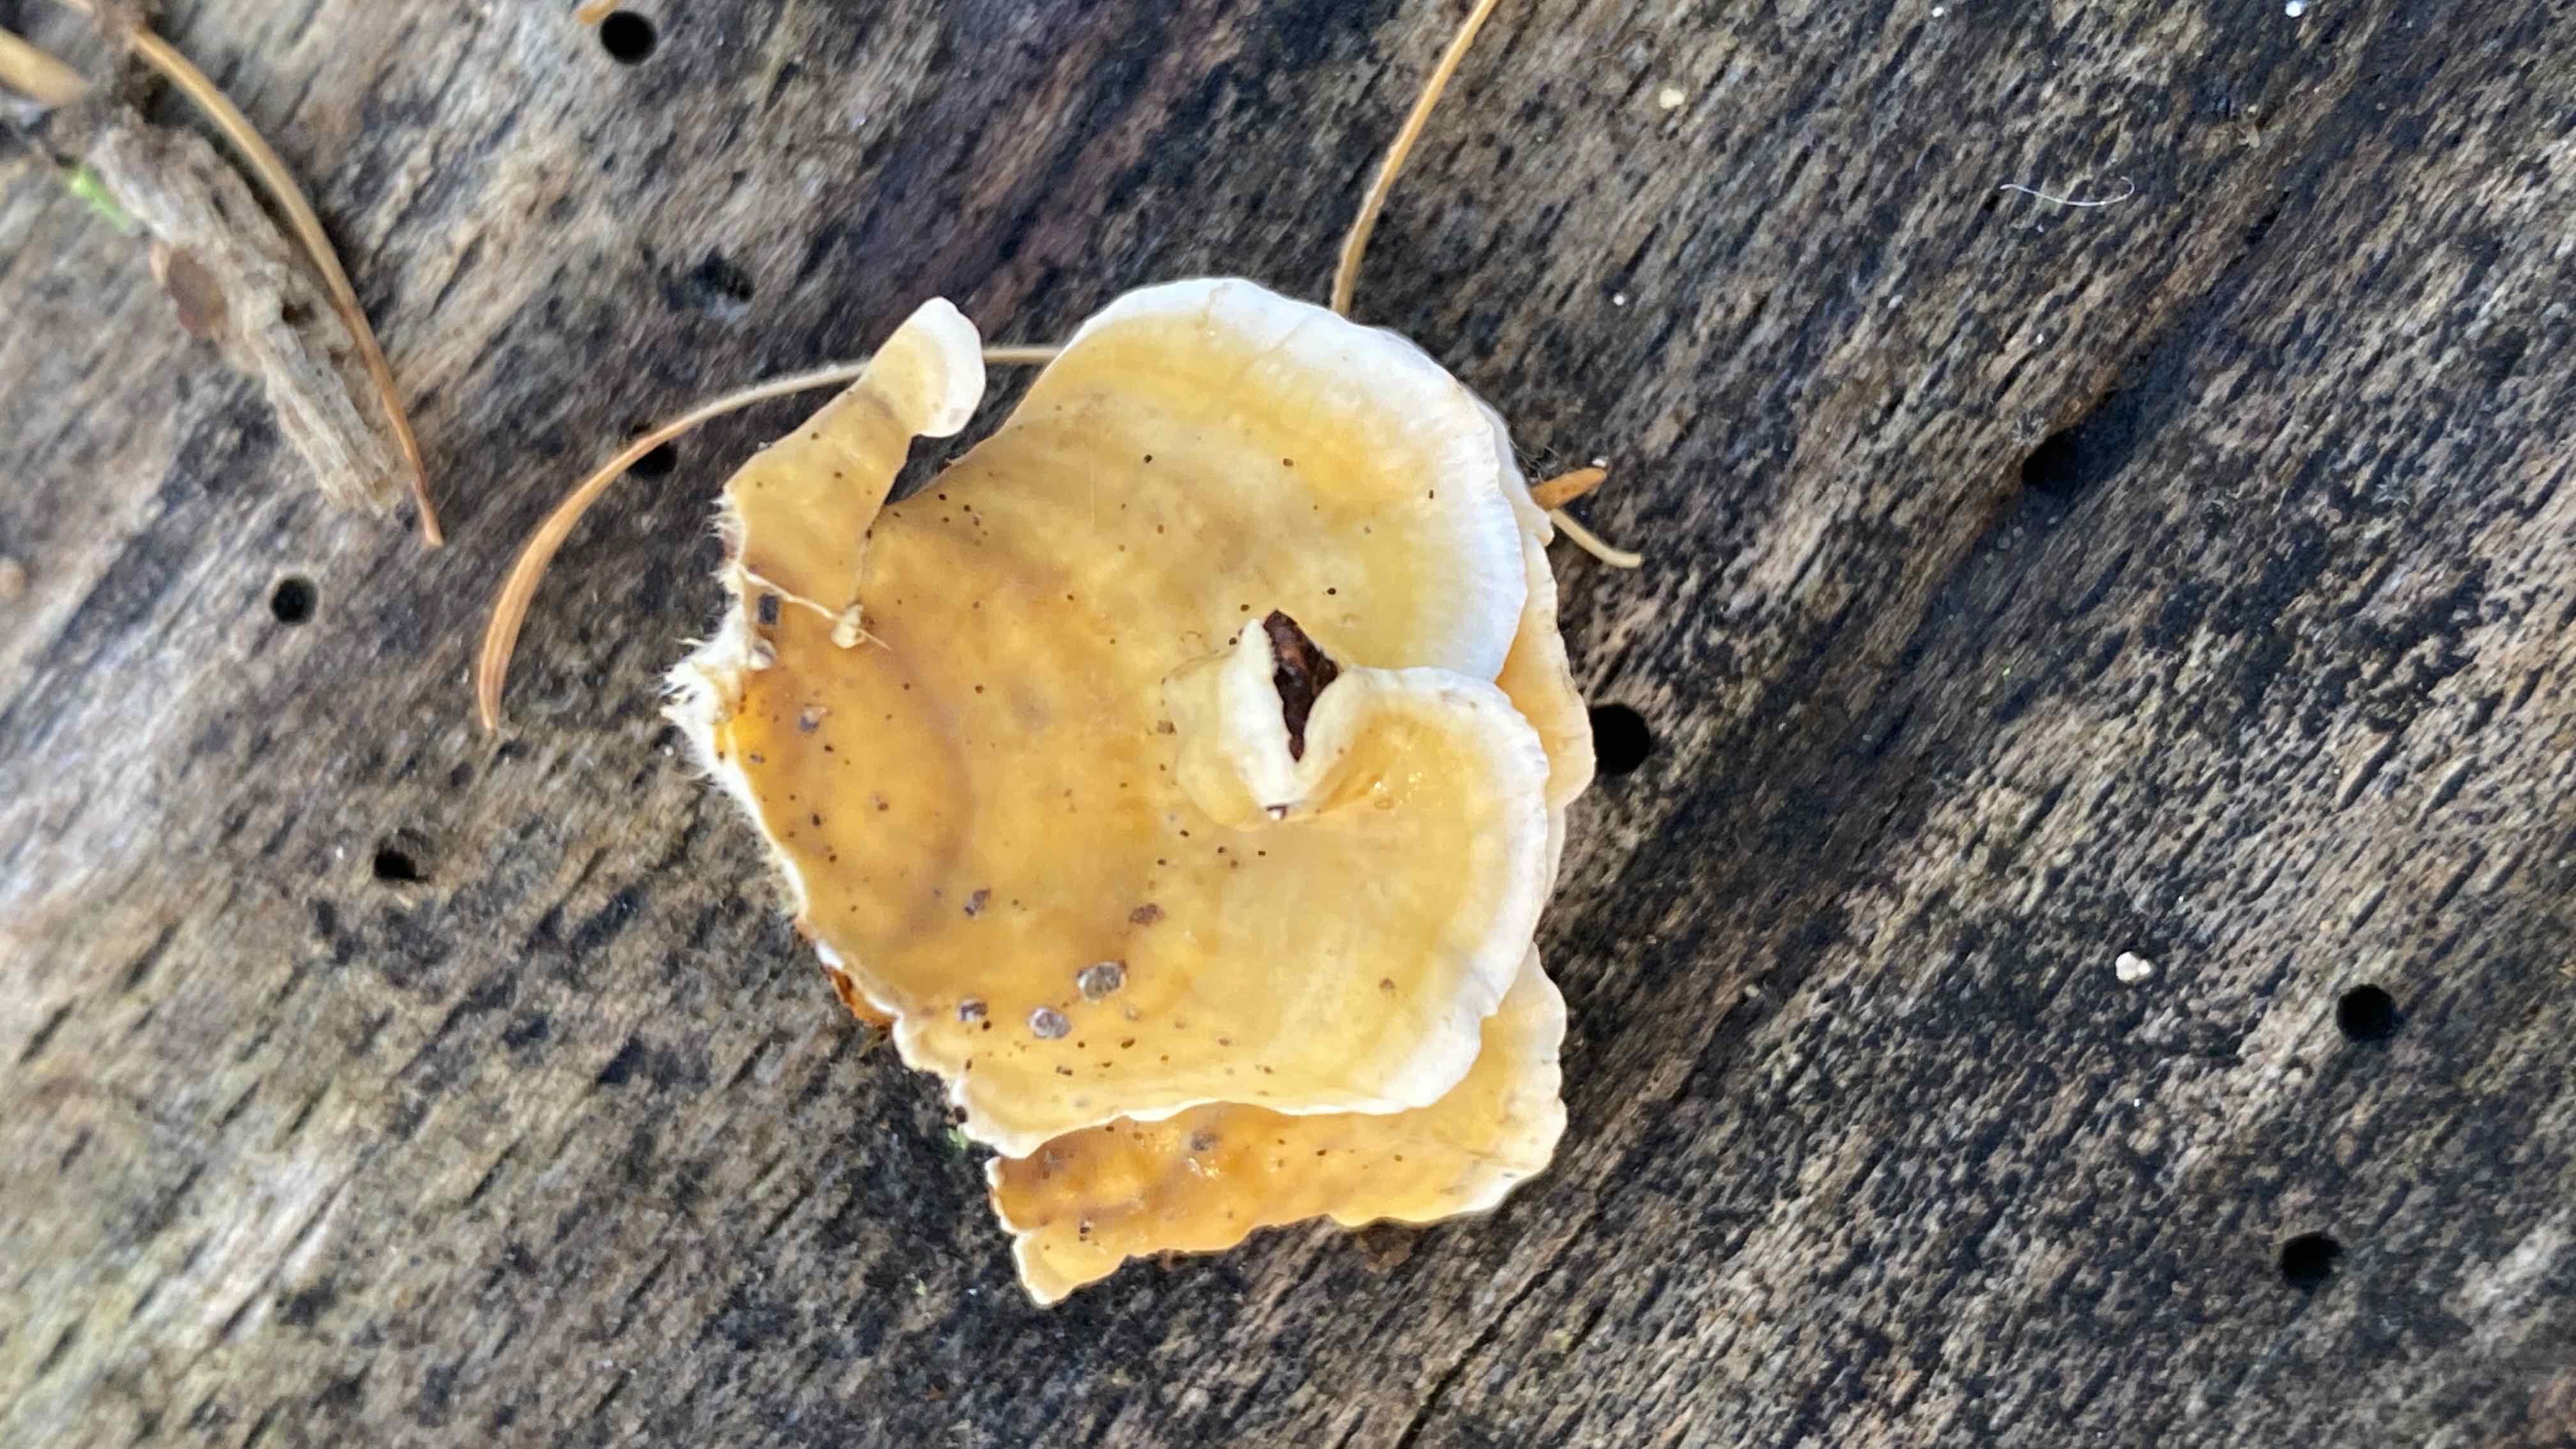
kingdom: Fungi
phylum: Basidiomycota
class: Agaricomycetes
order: Russulales
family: Stereaceae
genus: Stereum
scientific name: Stereum subtomentosum
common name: smuk lædersvamp
